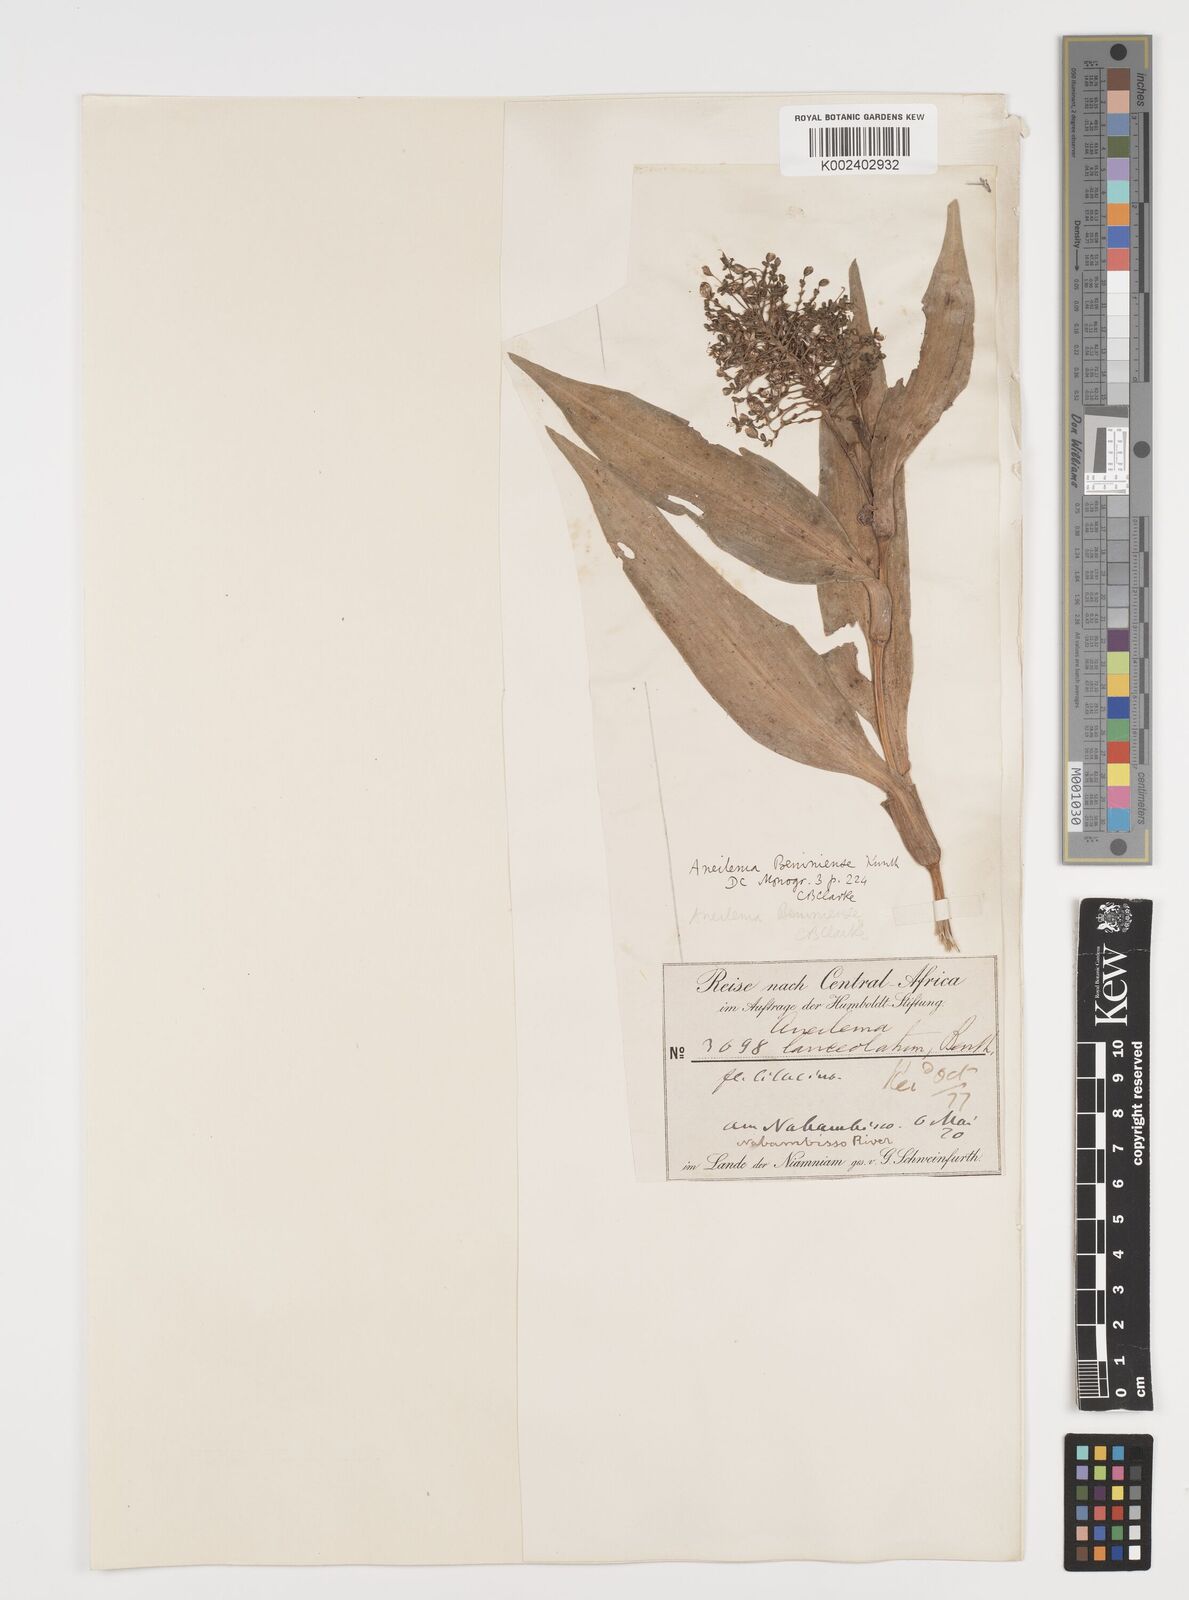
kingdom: Plantae
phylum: Tracheophyta
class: Liliopsida
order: Commelinales
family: Commelinaceae
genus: Aneilema
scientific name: Aneilema beniniense
